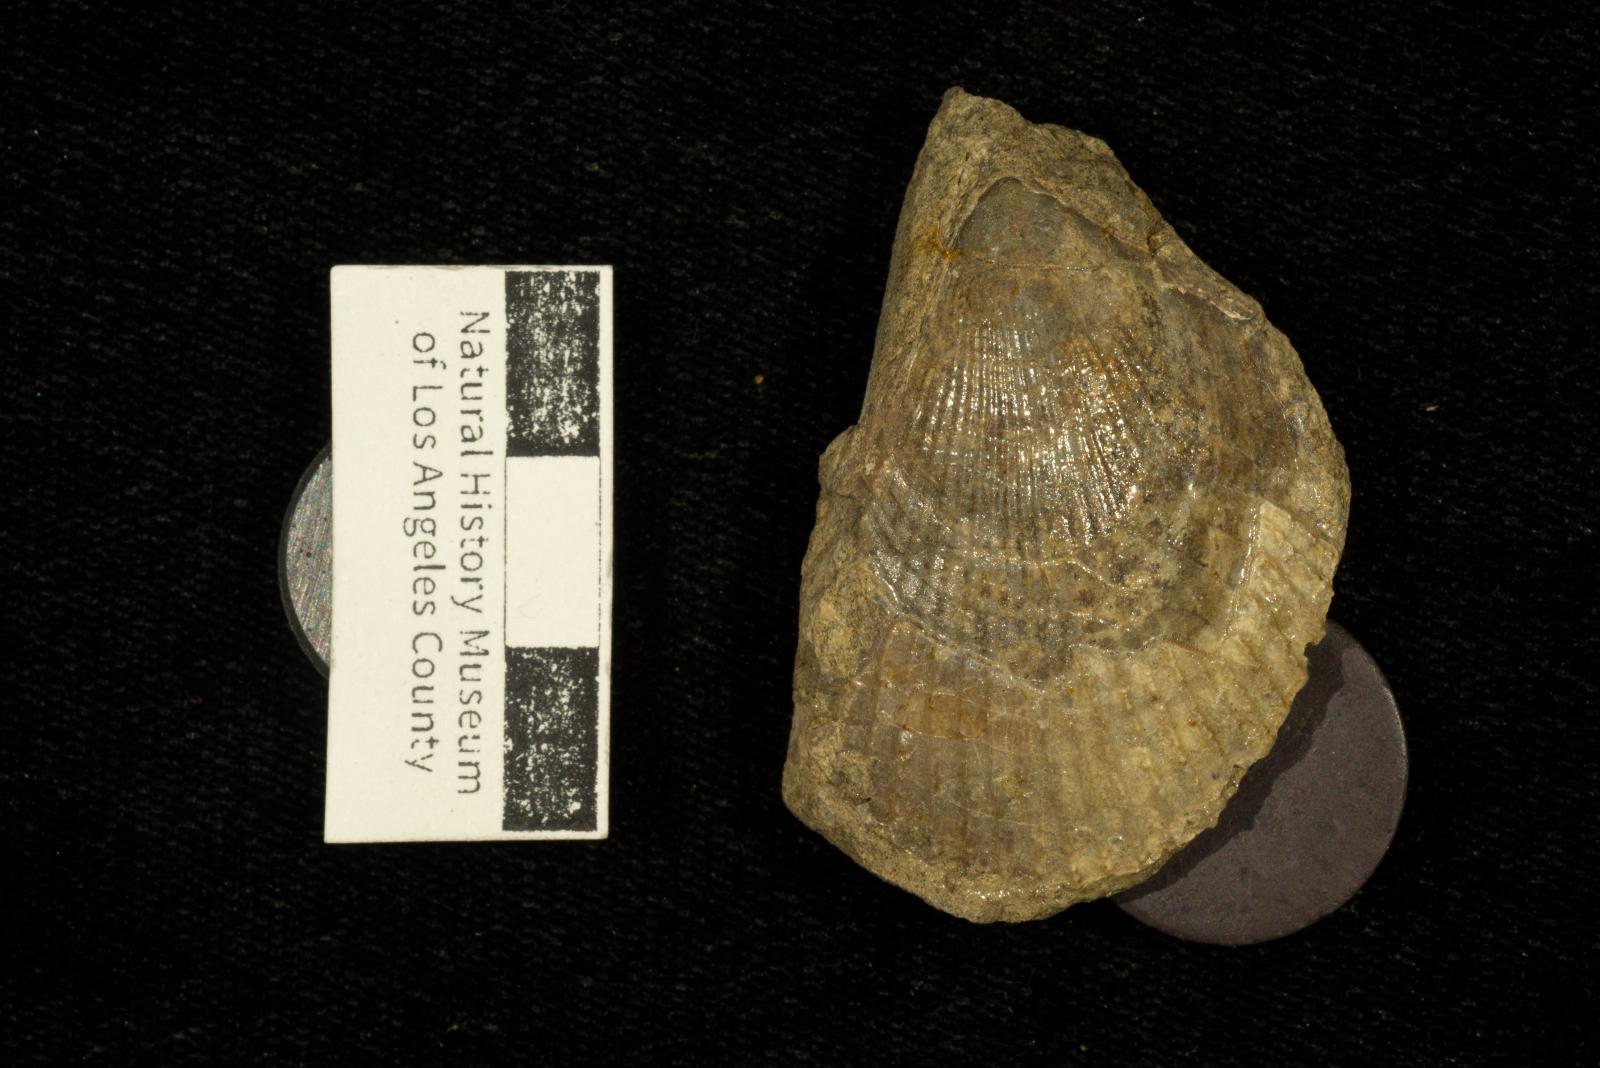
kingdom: Animalia
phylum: Mollusca
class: Bivalvia
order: Limida
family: Limidae
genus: Acesta
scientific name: Acesta Lima beta
